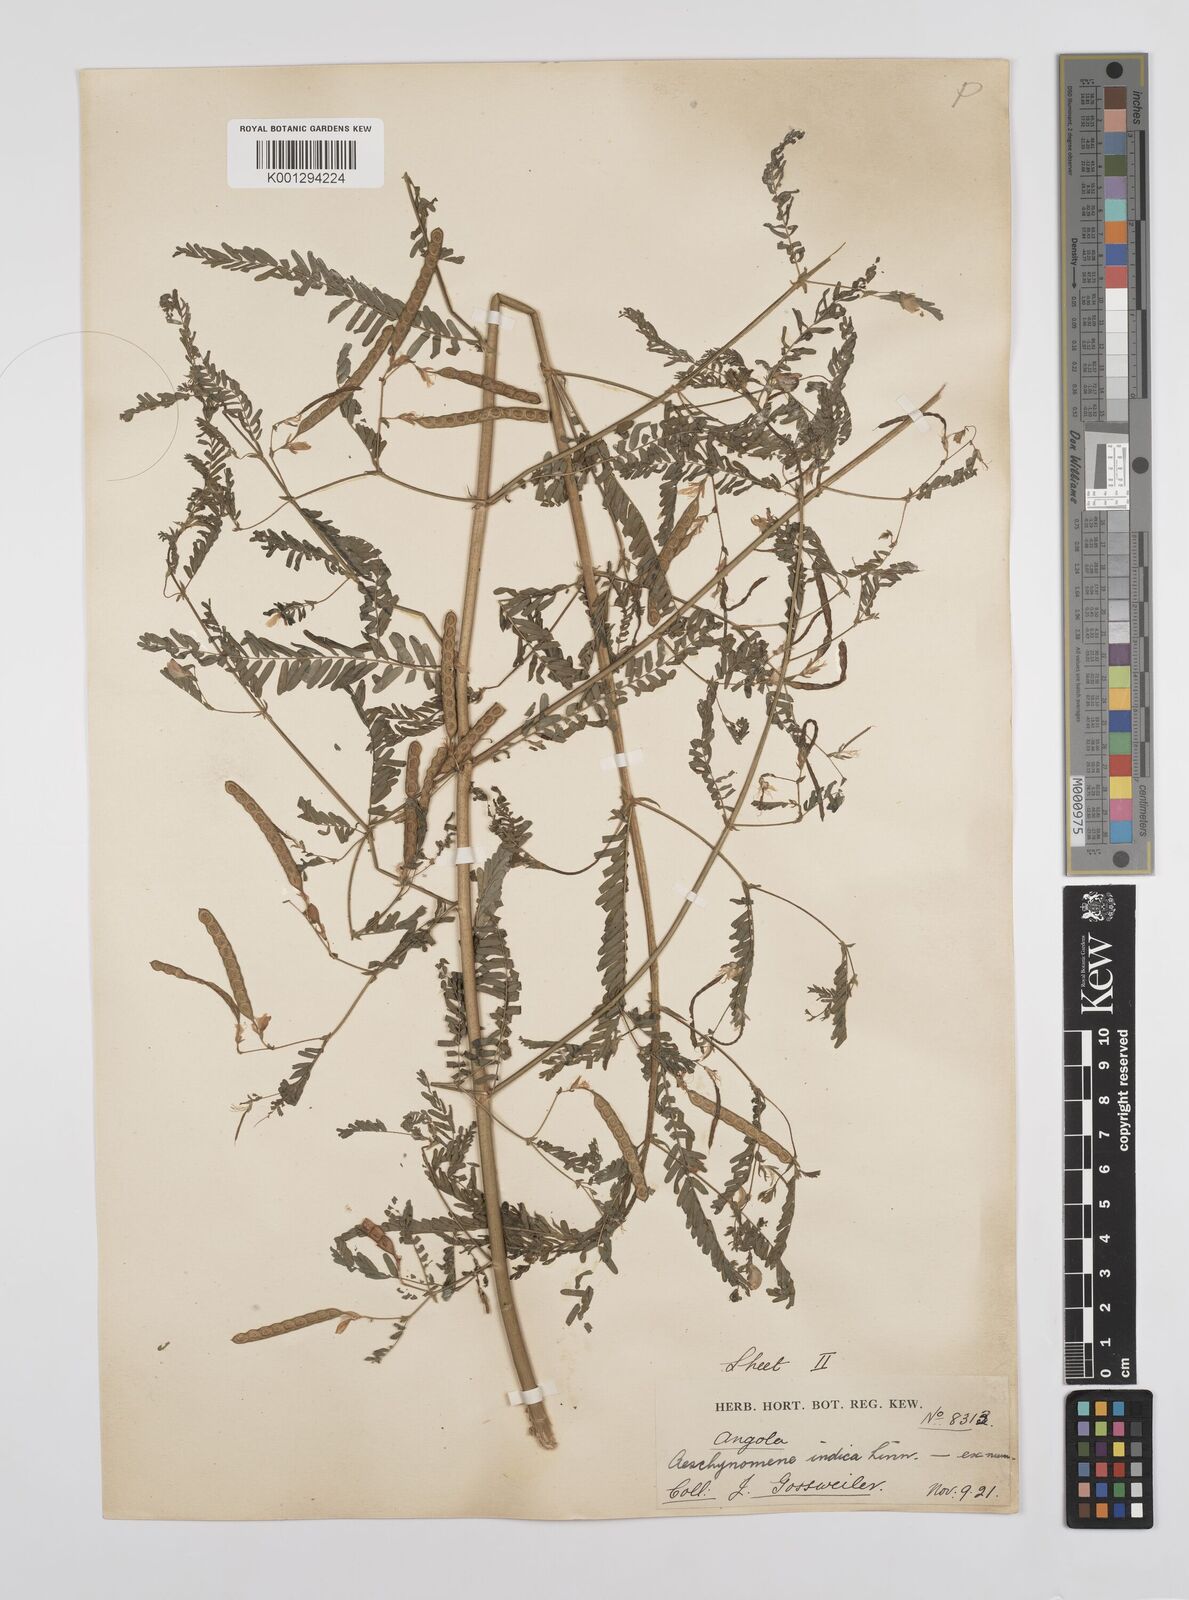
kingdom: Plantae
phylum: Tracheophyta
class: Magnoliopsida
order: Fabales
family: Fabaceae
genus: Aeschynomene
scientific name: Aeschynomene indica
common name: Indian jointvetch
